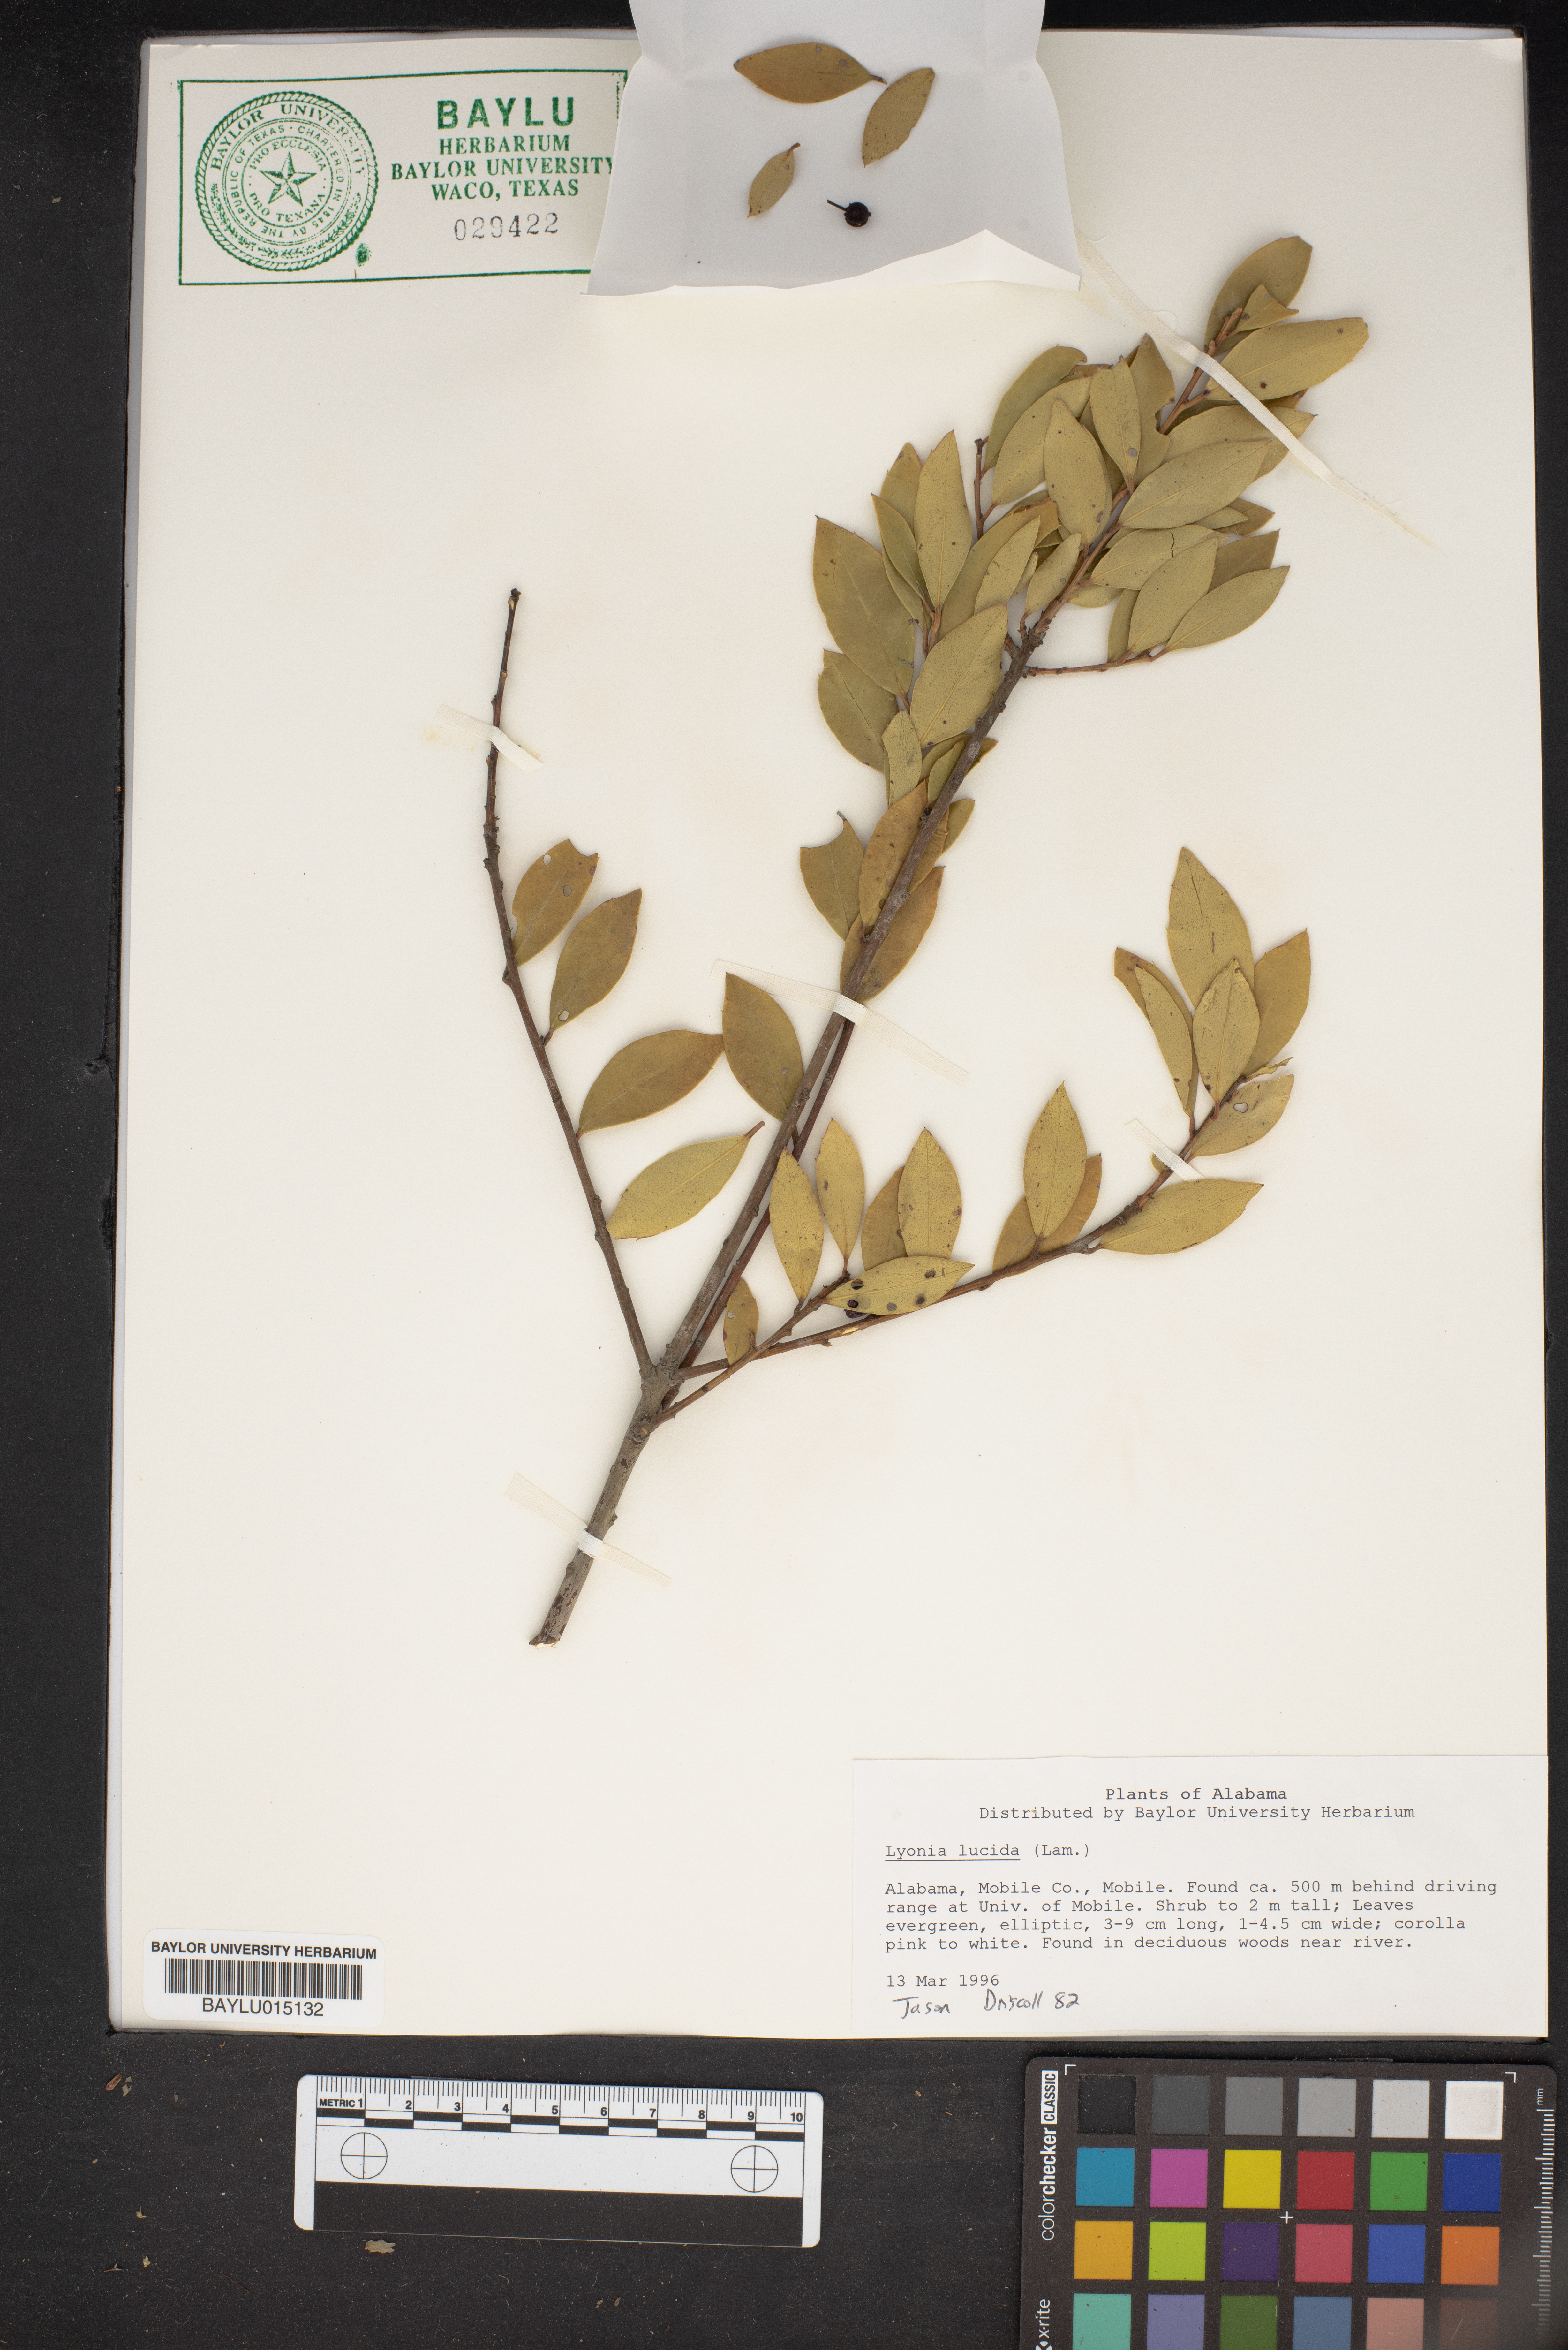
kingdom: Plantae
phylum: Tracheophyta
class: Magnoliopsida
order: Ericales
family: Ericaceae
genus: Lyonia
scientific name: Lyonia lucida
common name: Fetterbush
